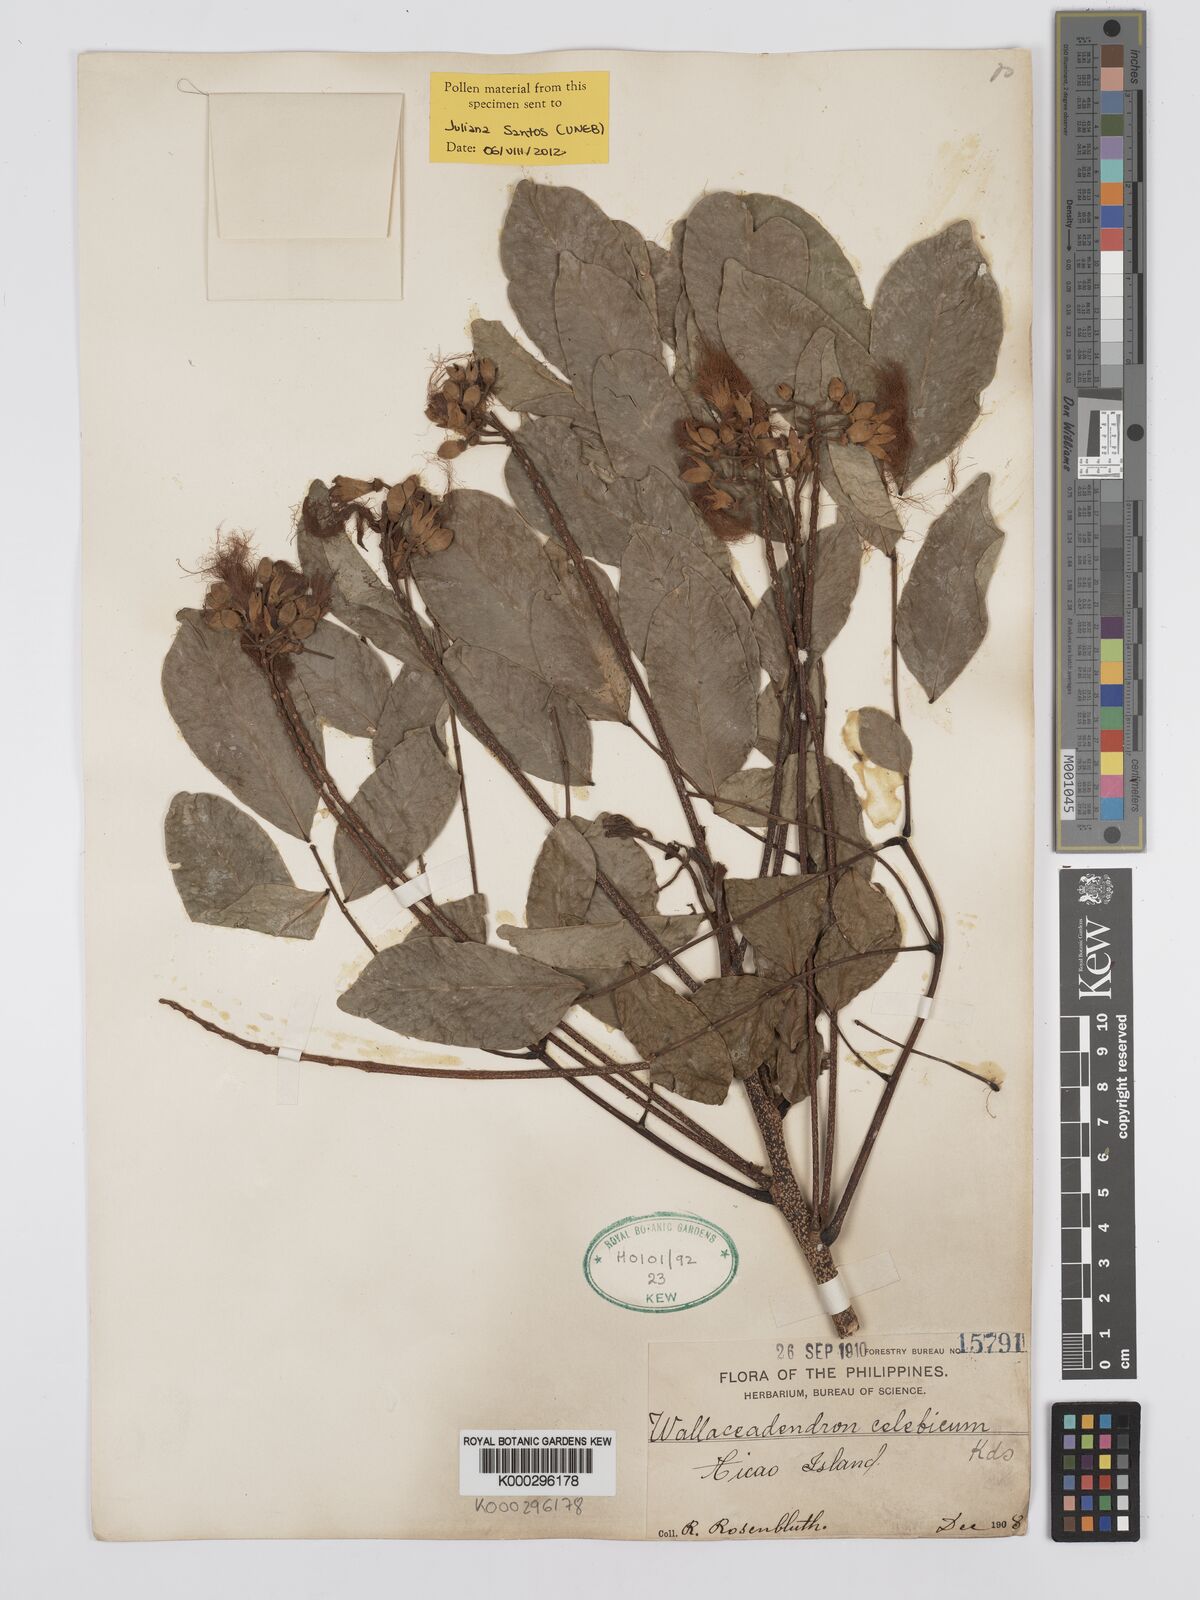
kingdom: Plantae
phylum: Tracheophyta
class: Magnoliopsida
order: Fabales
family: Fabaceae
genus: Wallaceodendron
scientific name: Wallaceodendron celebicum
